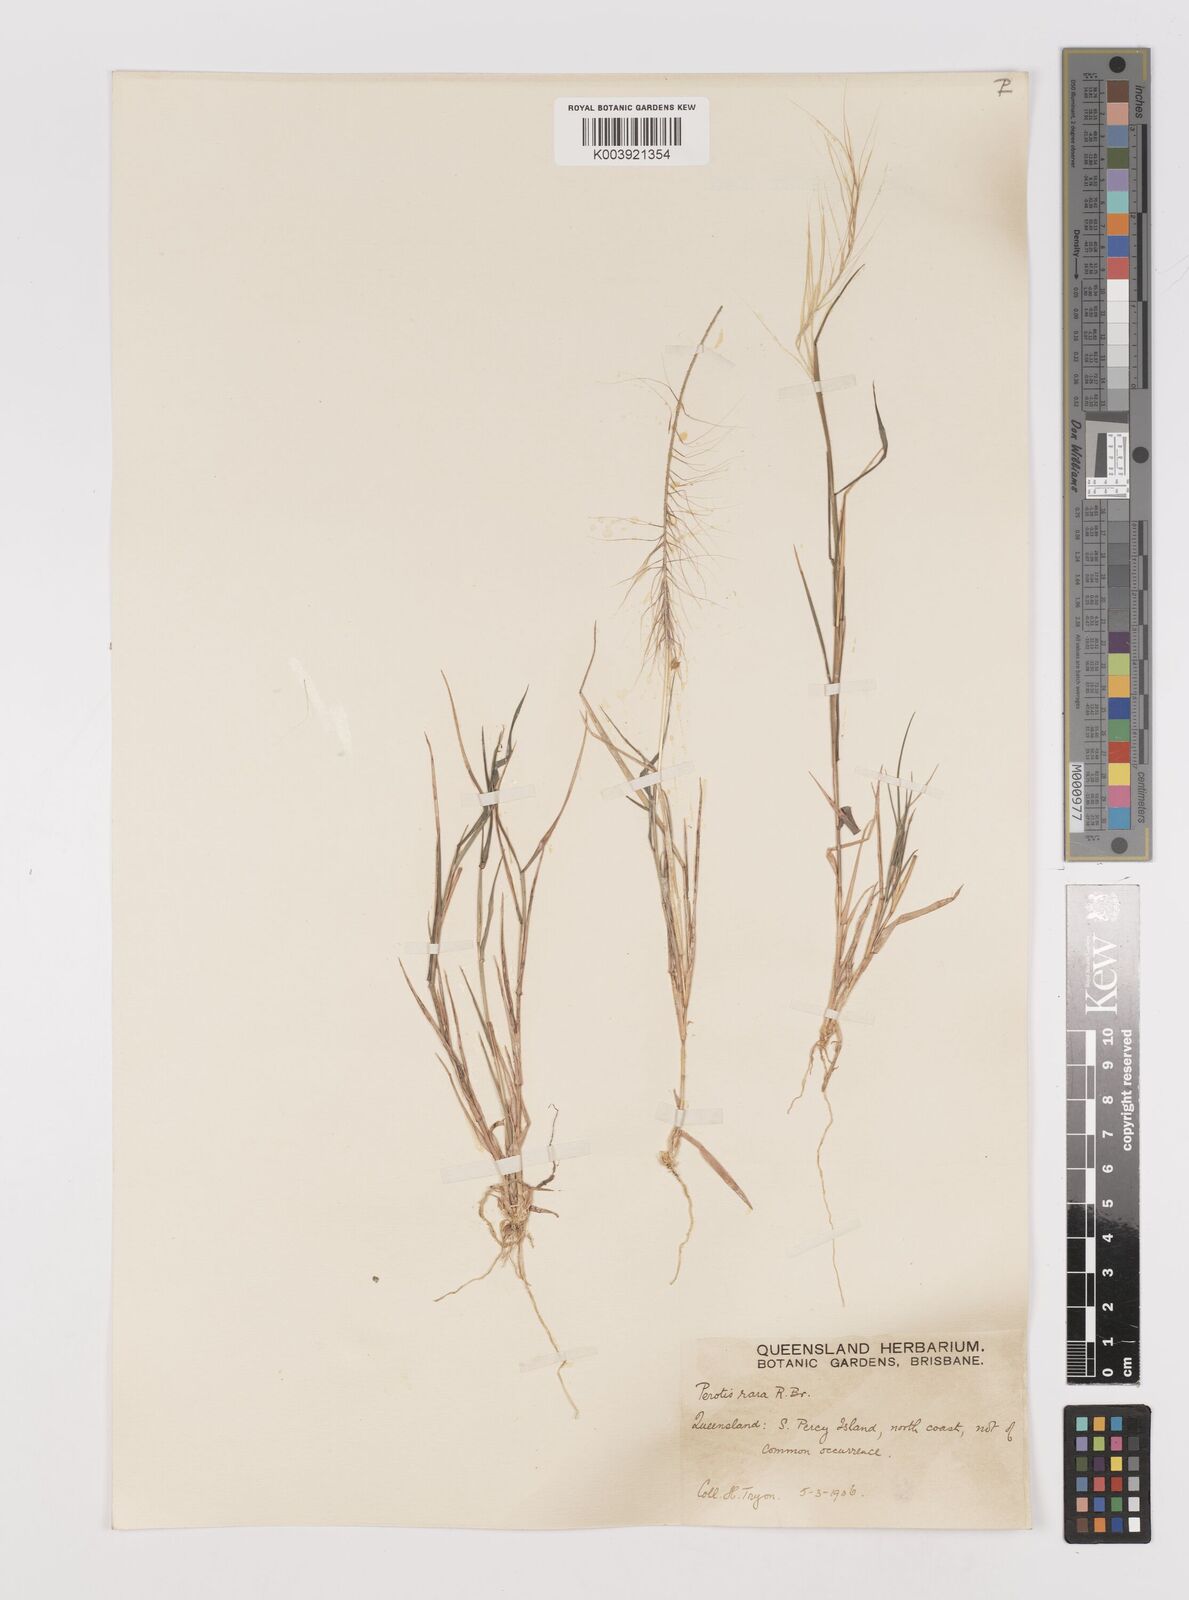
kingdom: Plantae
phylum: Tracheophyta
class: Liliopsida
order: Poales
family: Poaceae
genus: Perotis
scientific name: Perotis rara
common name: Comet grass
